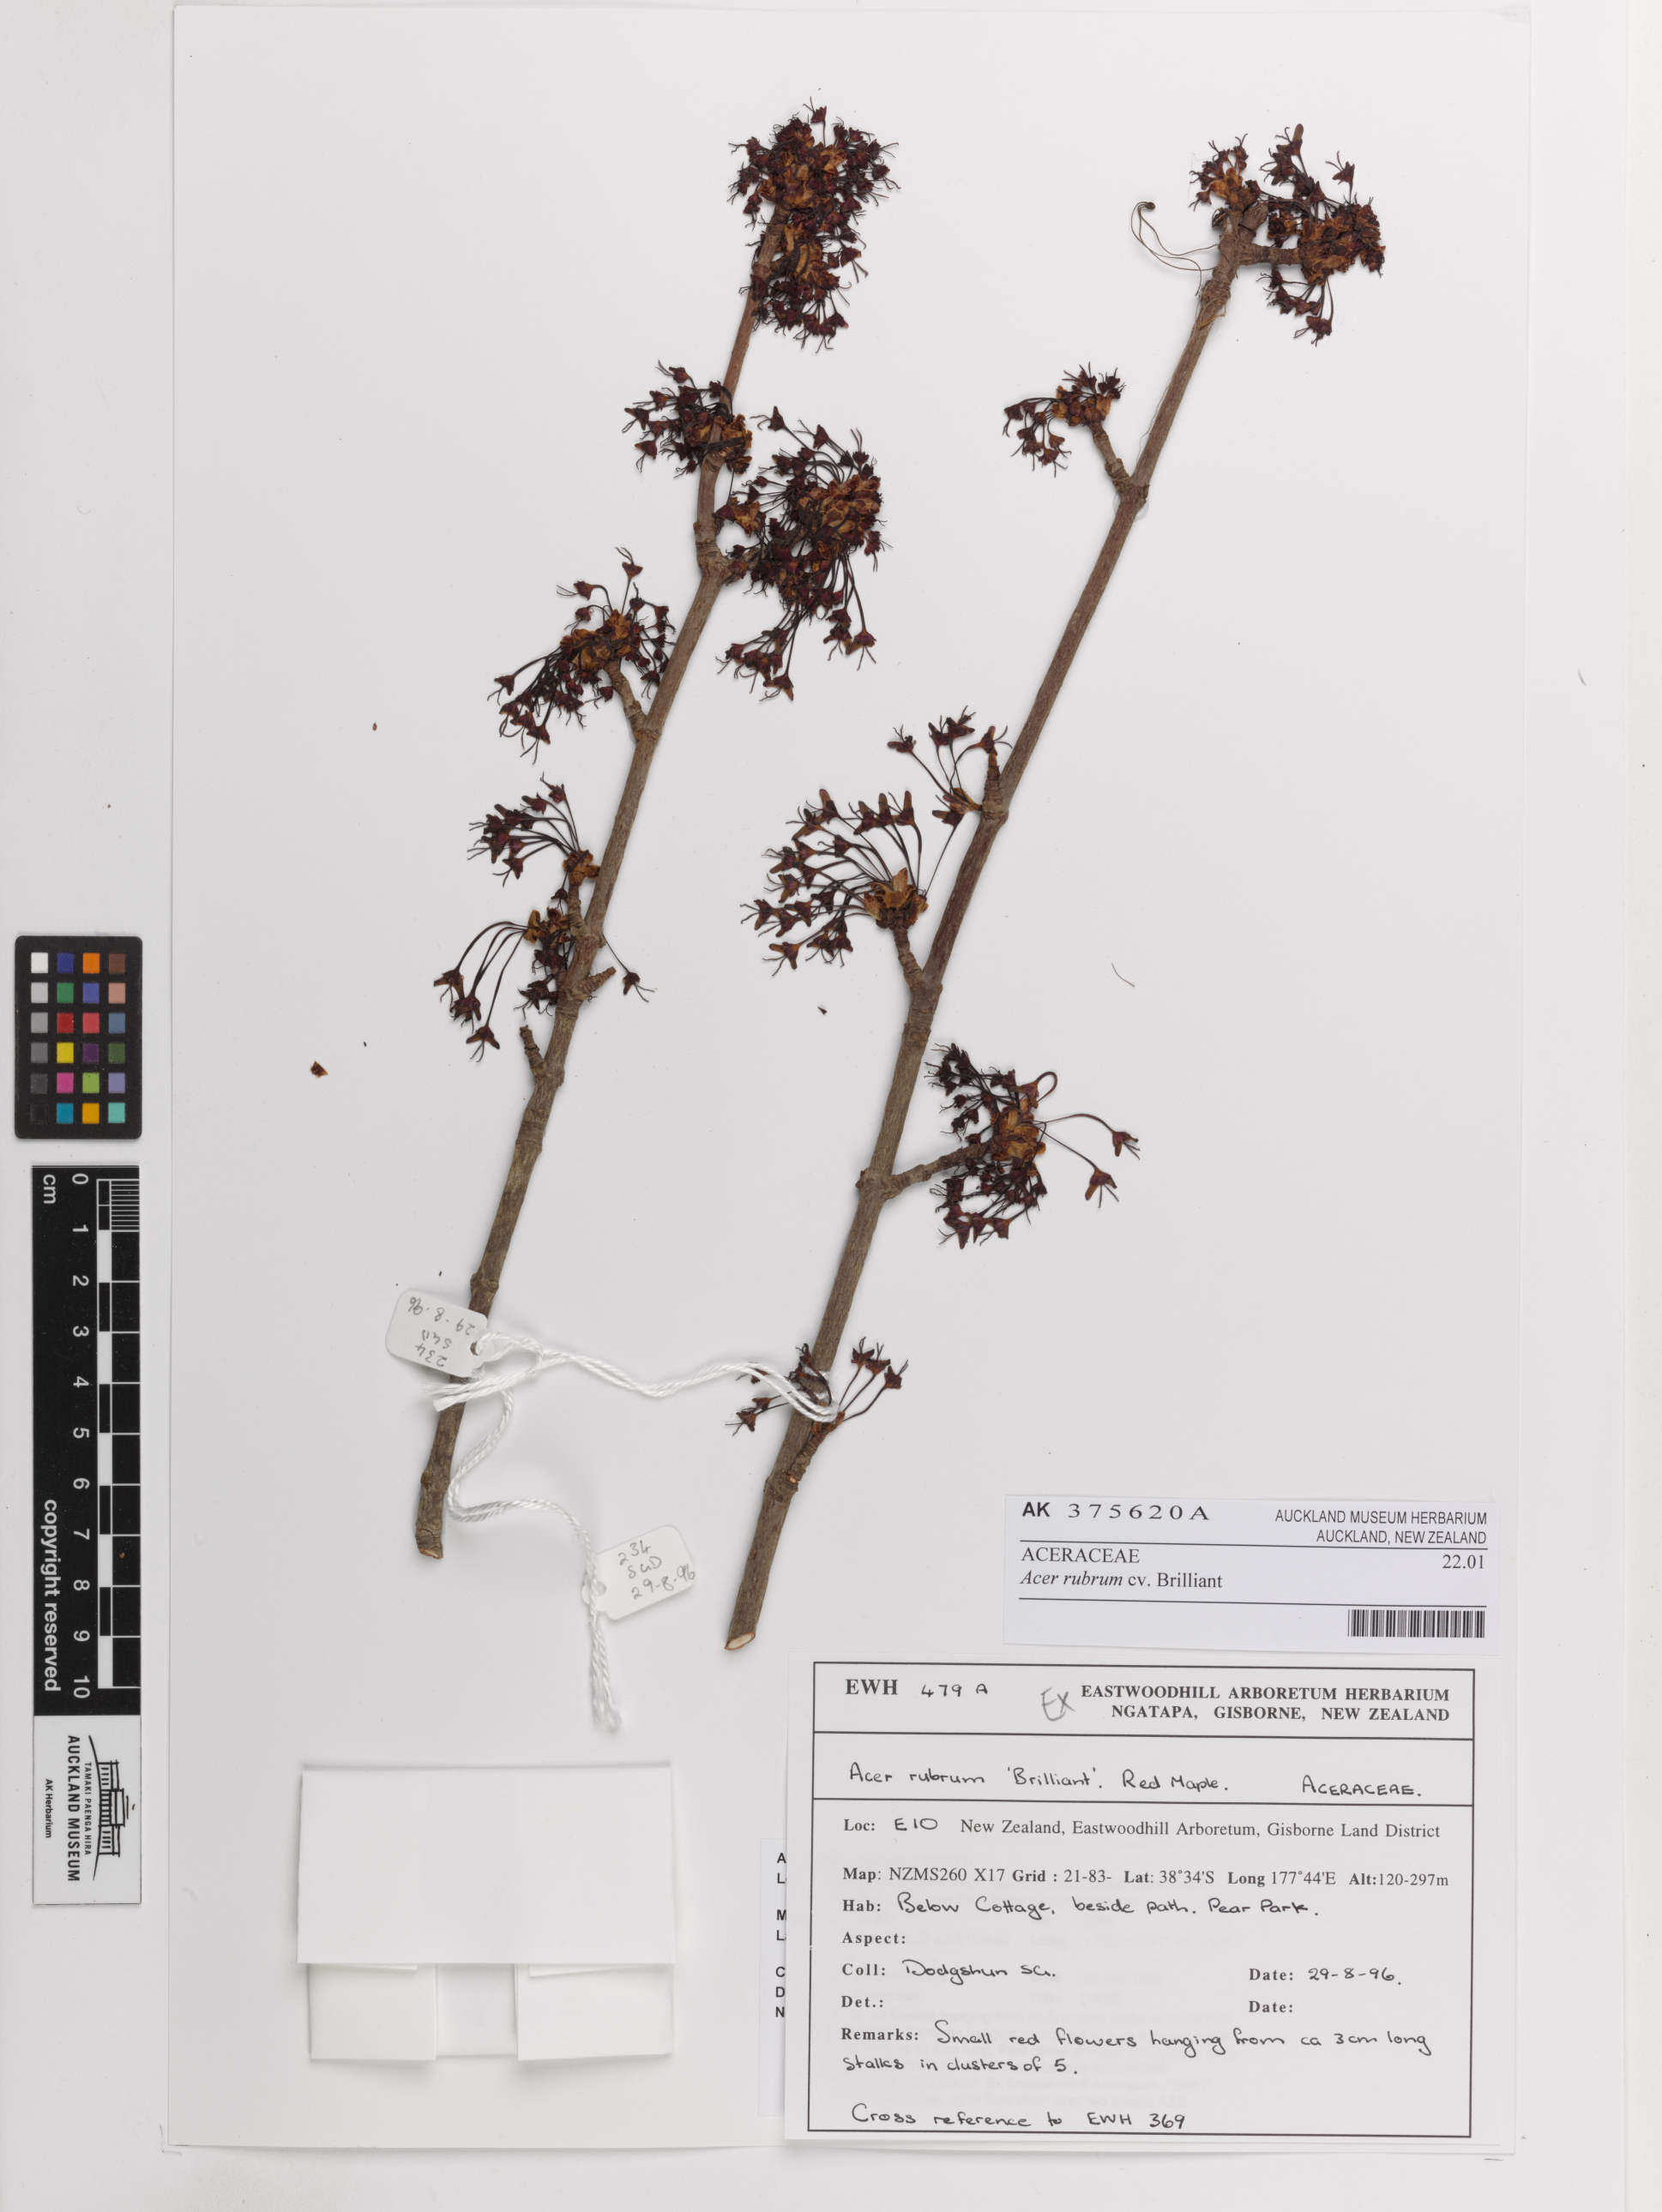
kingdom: Plantae
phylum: Tracheophyta
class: Magnoliopsida
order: Sapindales
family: Sapindaceae
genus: Acer
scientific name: Acer rubrum
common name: Red maple
